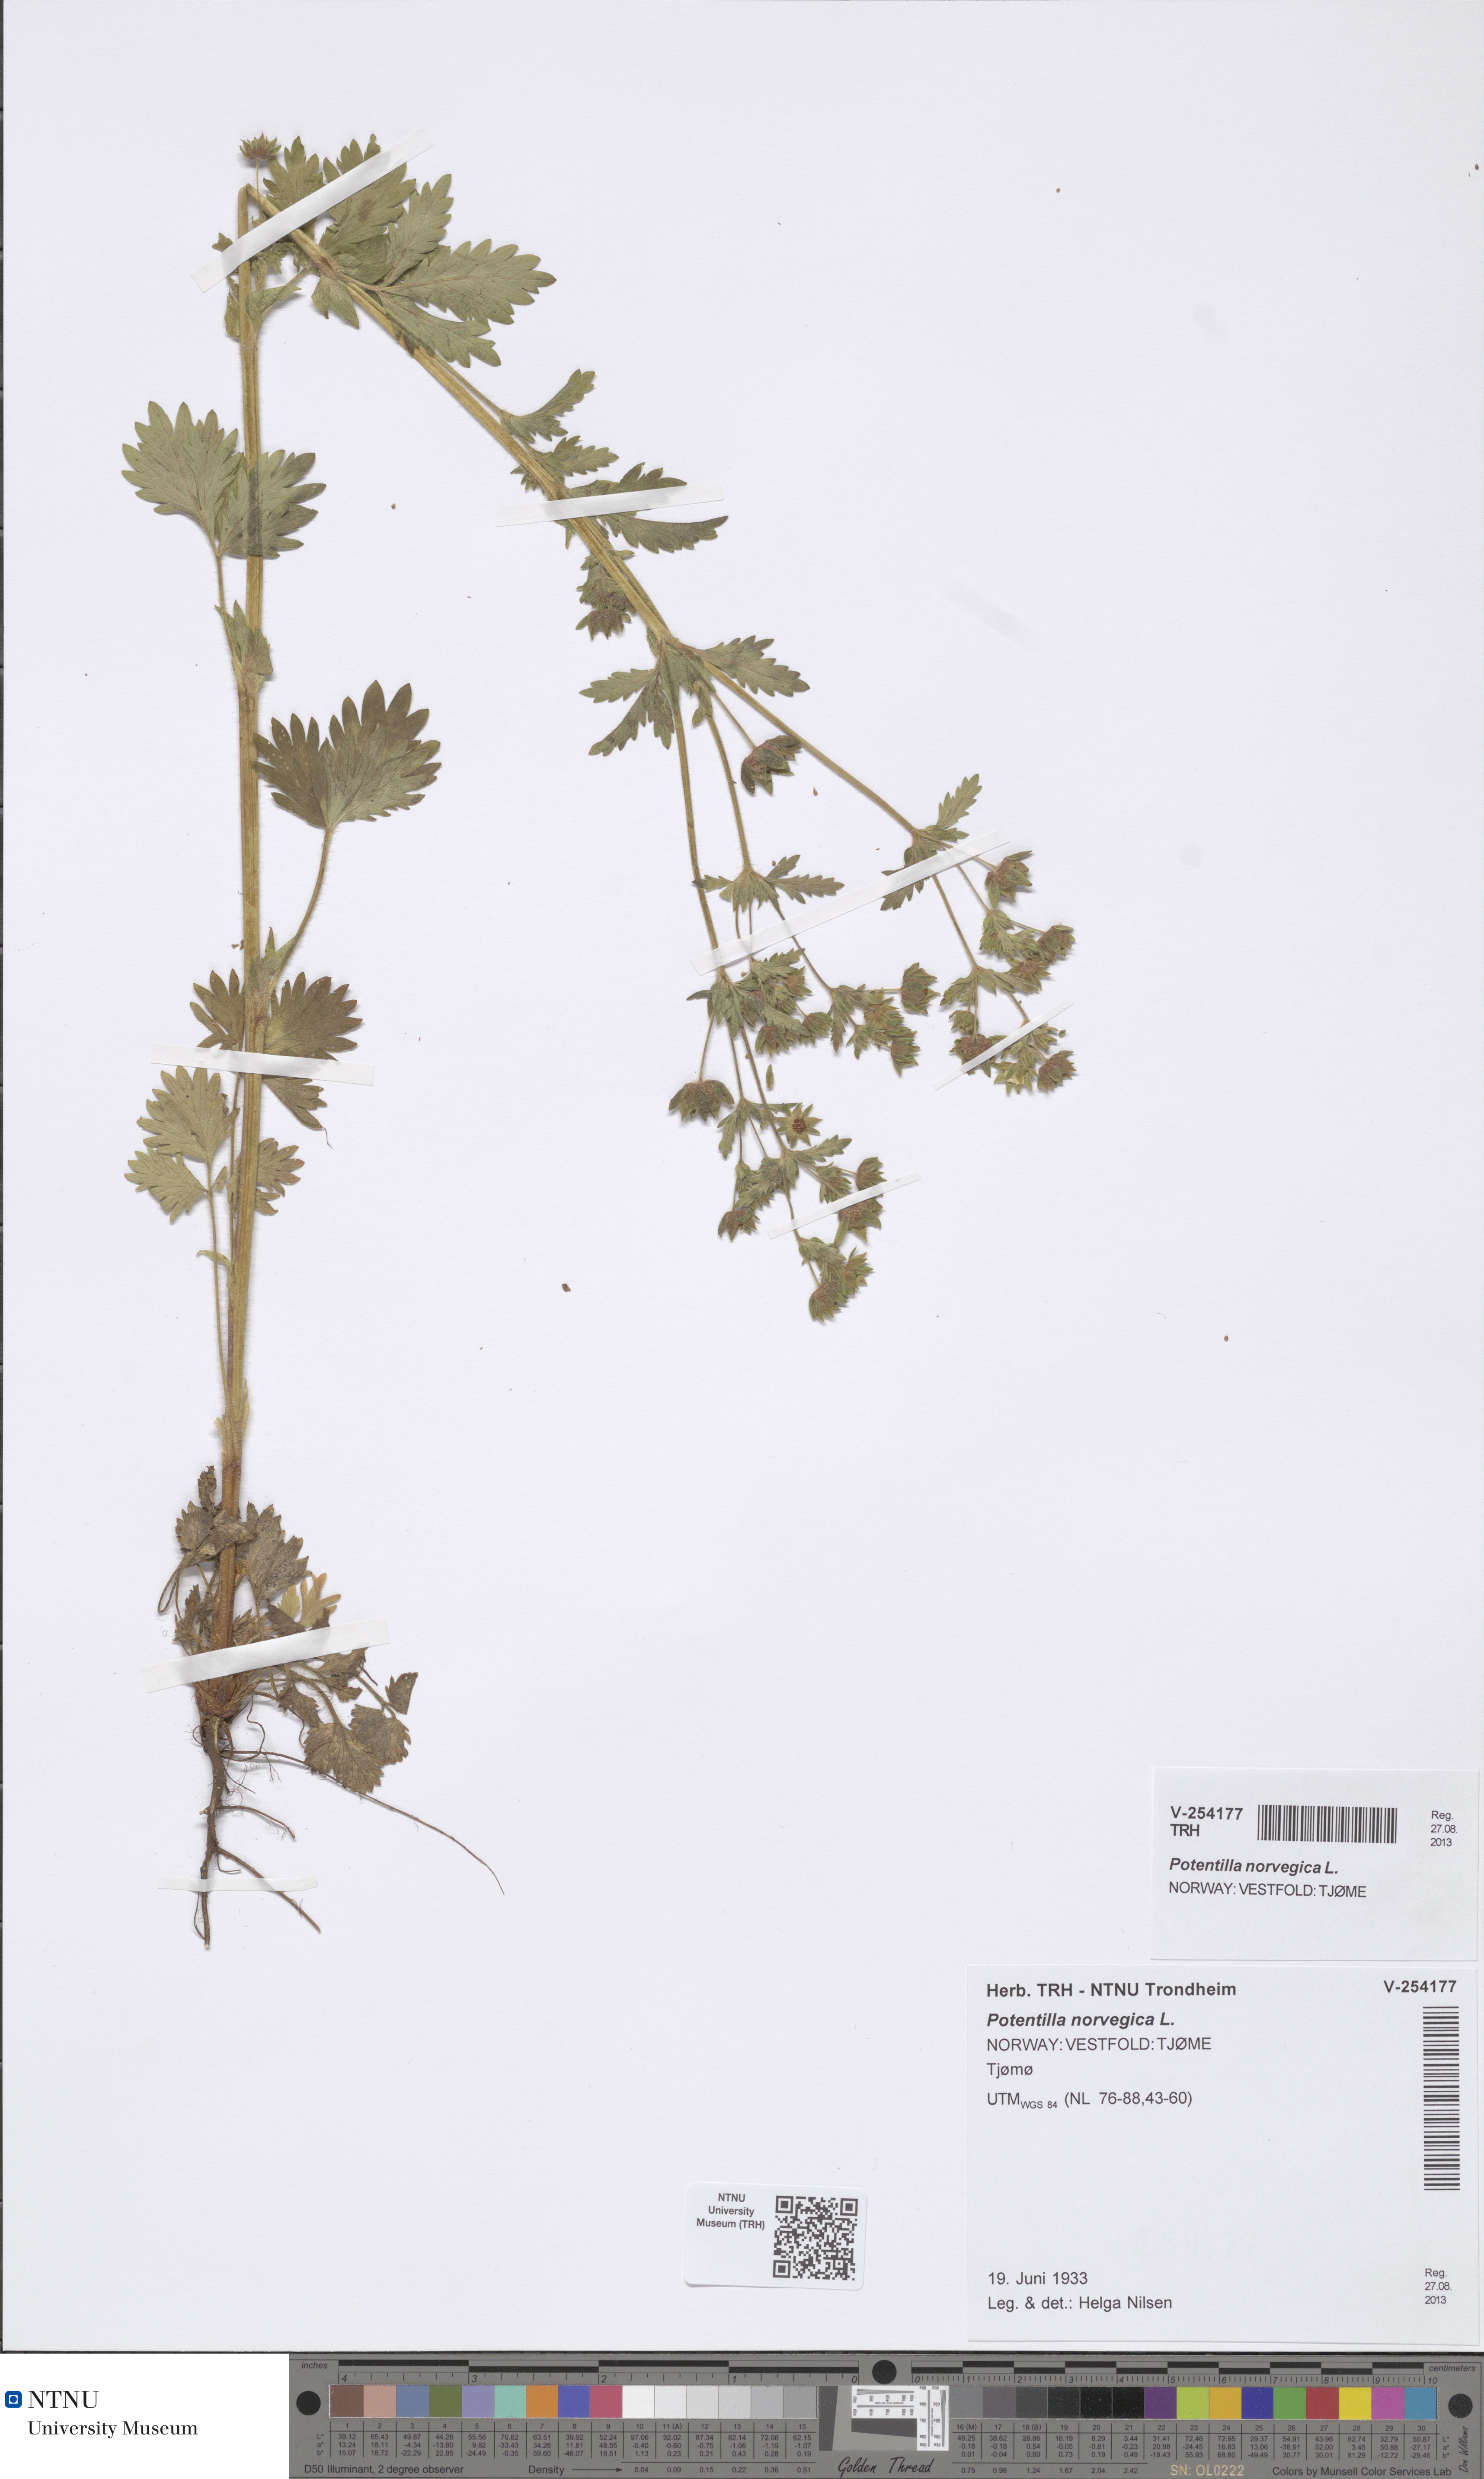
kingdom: Plantae
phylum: Tracheophyta
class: Magnoliopsida
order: Rosales
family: Rosaceae
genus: Potentilla
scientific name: Potentilla norvegica
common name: Ternate-leaved cinquefoil
